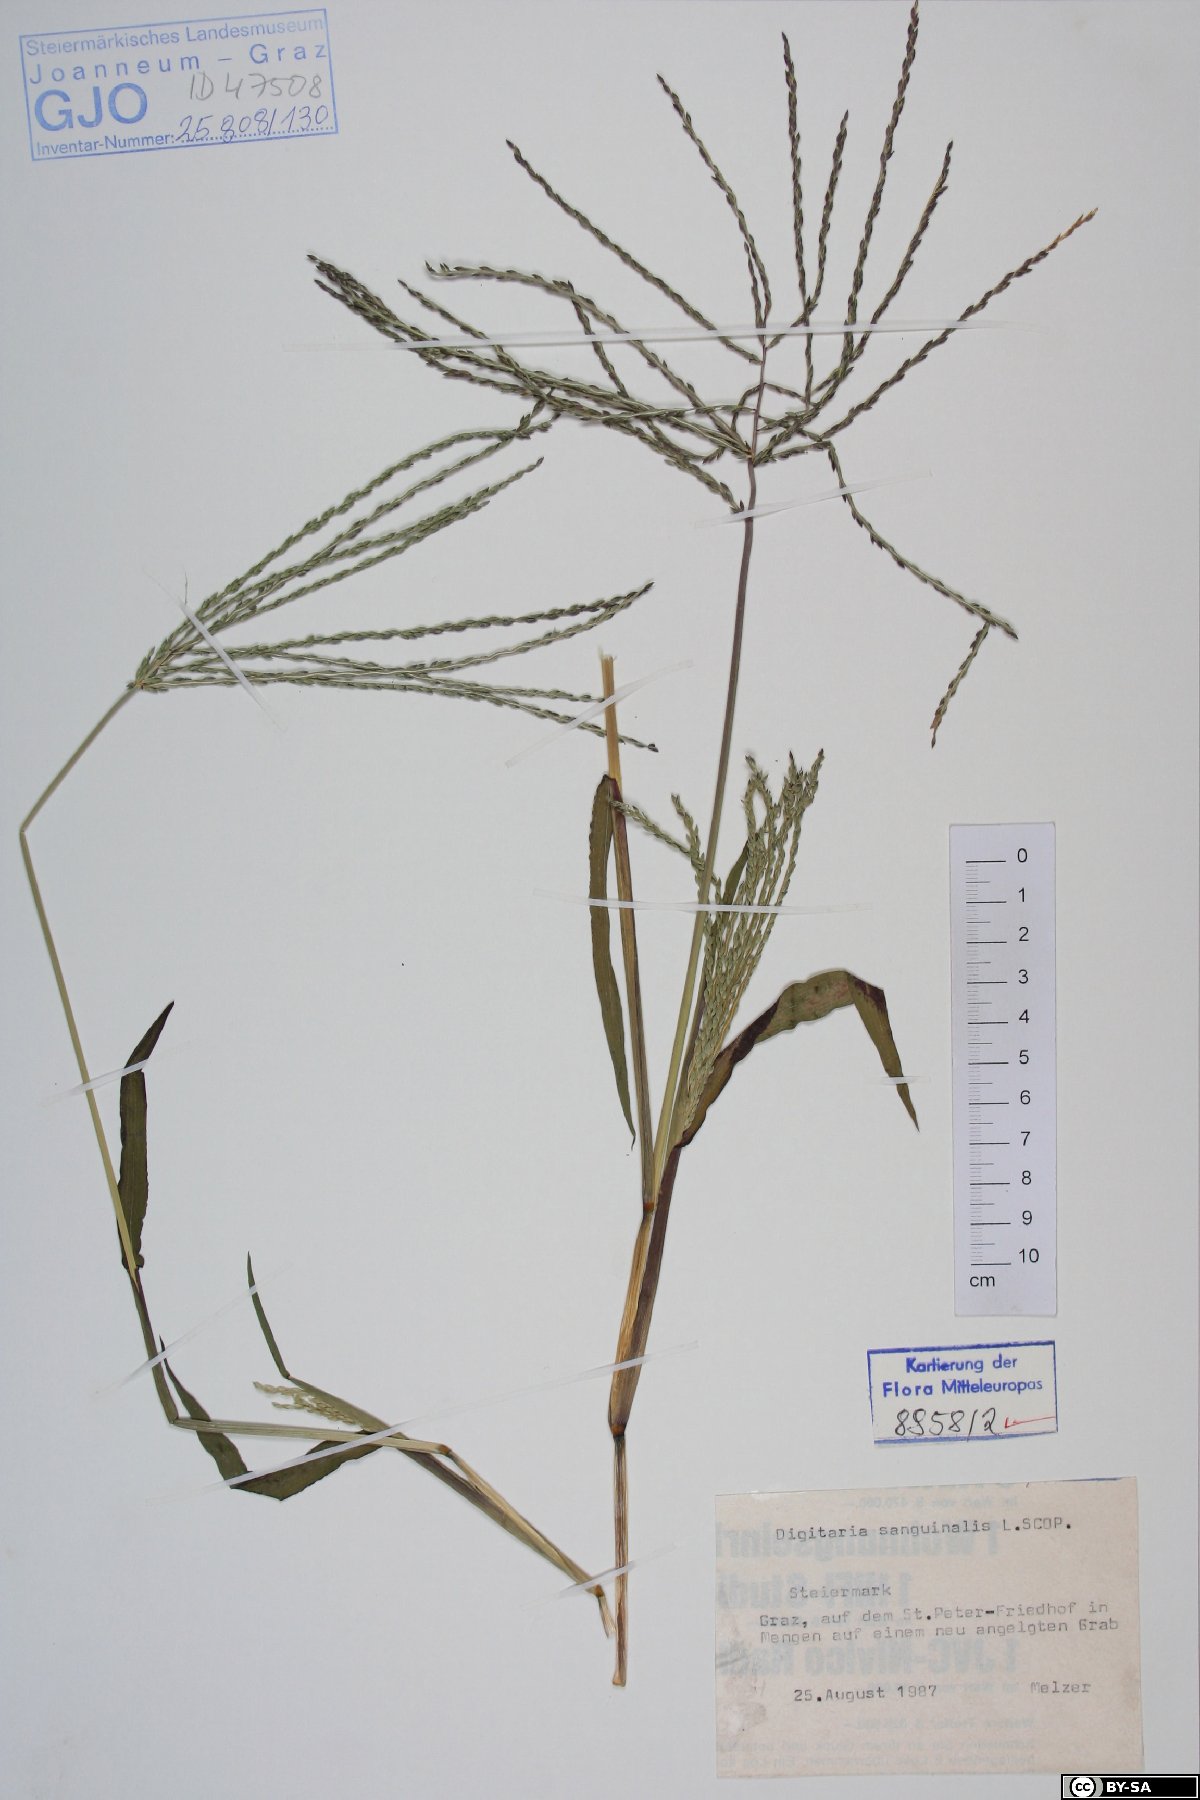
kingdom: Plantae
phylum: Tracheophyta
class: Liliopsida
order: Poales
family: Poaceae
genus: Digitaria
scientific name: Digitaria sanguinalis
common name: Hairy crabgrass
